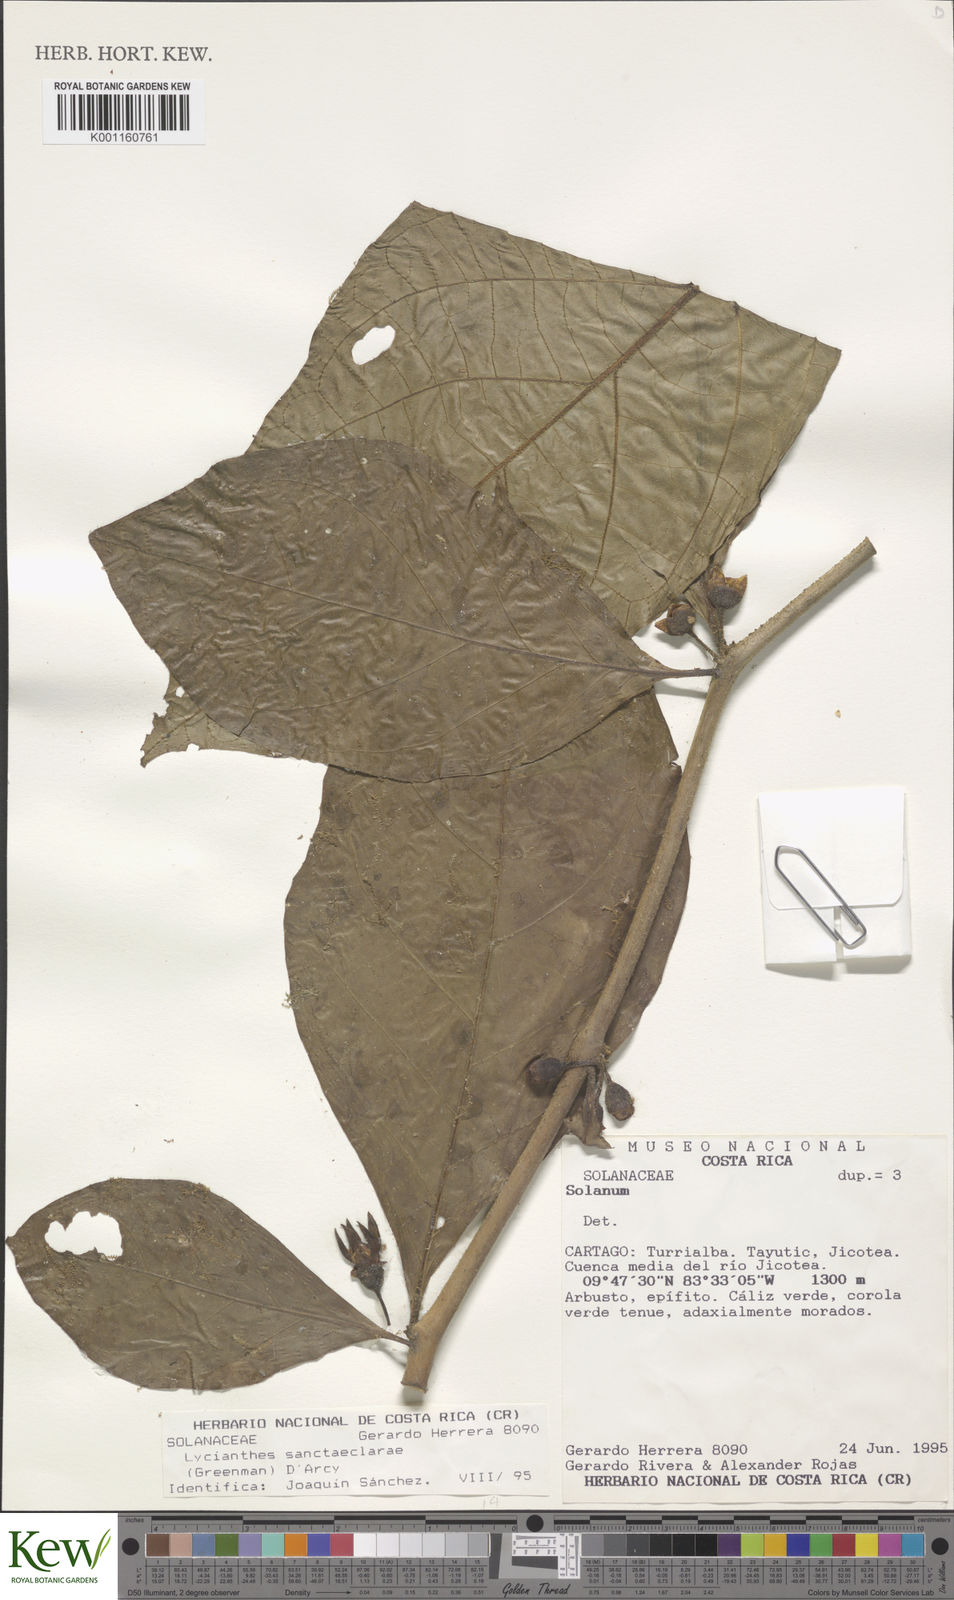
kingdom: Plantae
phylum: Tracheophyta
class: Magnoliopsida
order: Solanales
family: Solanaceae
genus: Lycianthes
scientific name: Lycianthes sanctaeclarae
